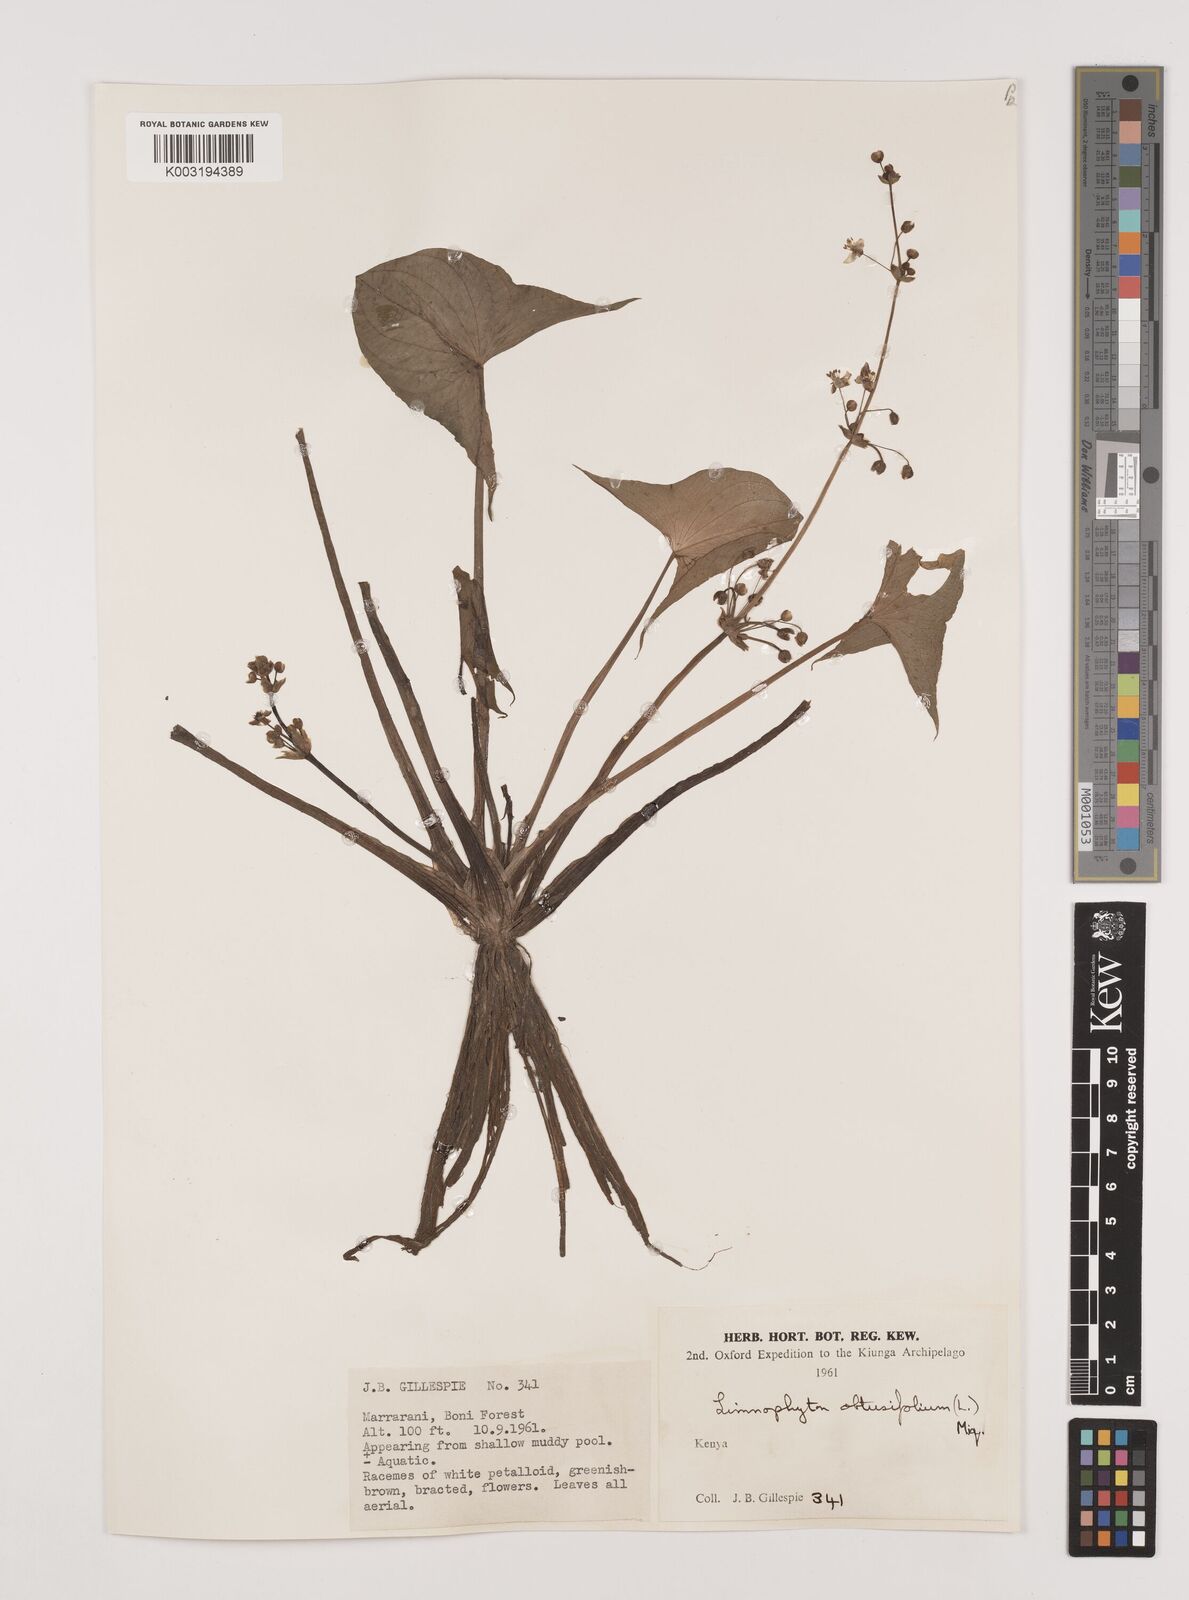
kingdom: Plantae
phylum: Tracheophyta
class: Liliopsida
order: Alismatales
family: Alismataceae
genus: Limnophyton
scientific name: Limnophyton obtusifolium
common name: Arrow head
